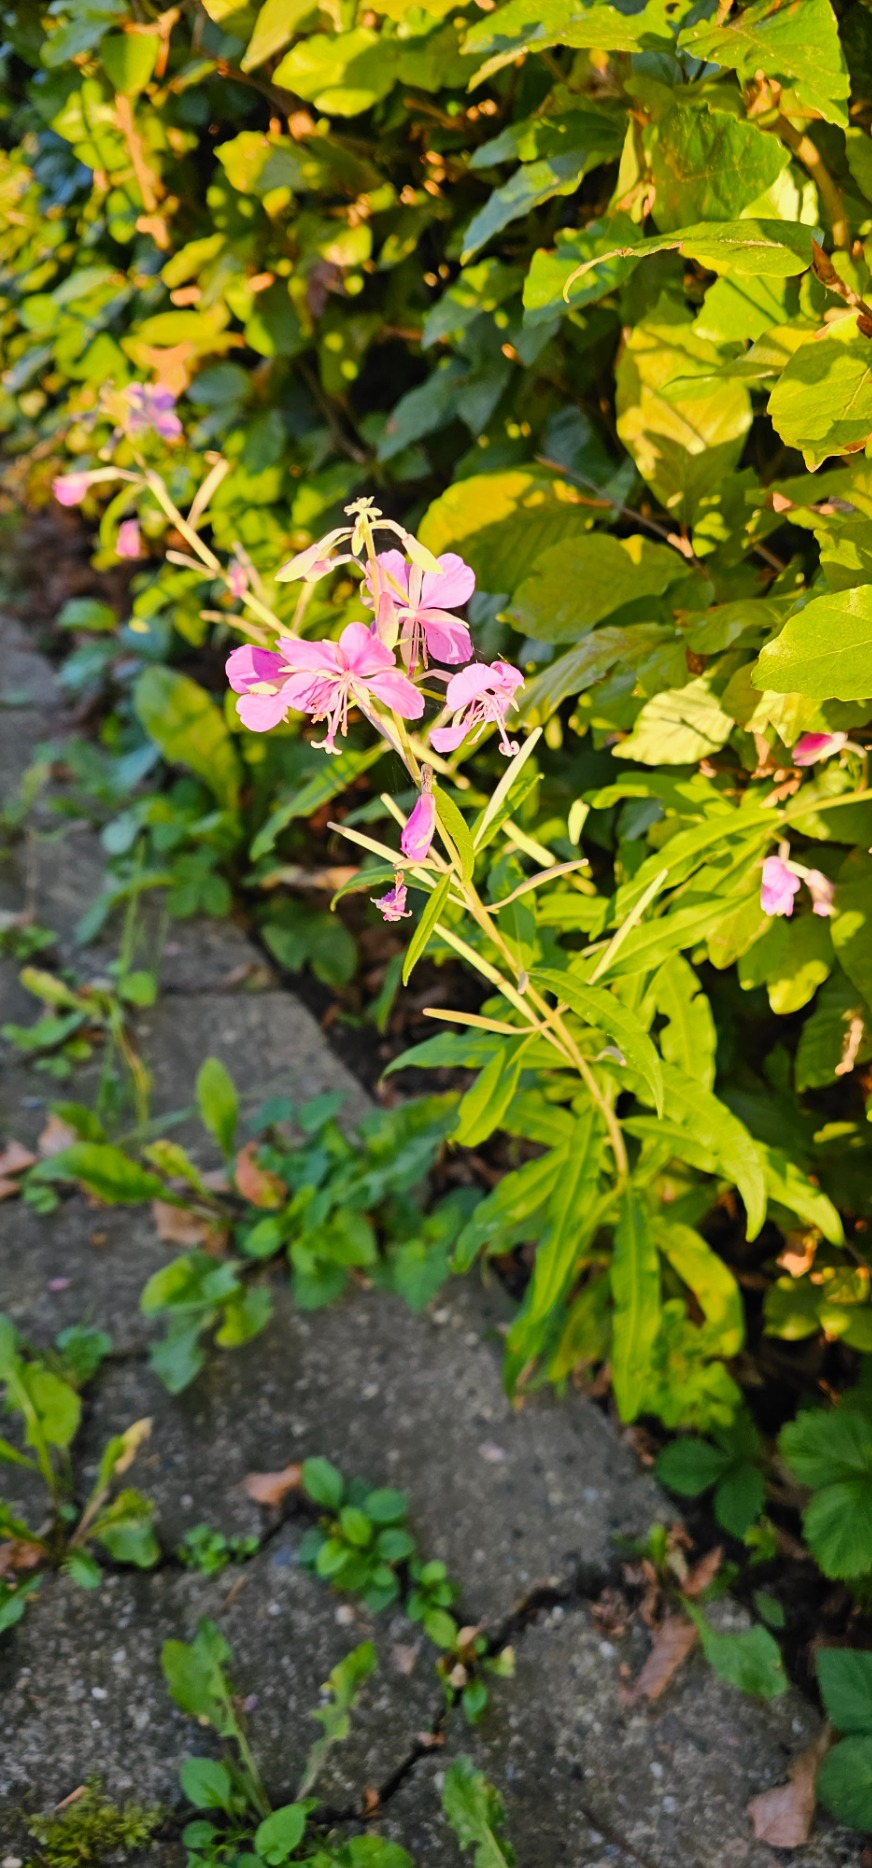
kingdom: Plantae
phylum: Tracheophyta
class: Magnoliopsida
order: Myrtales
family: Onagraceae
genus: Chamaenerion
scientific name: Chamaenerion angustifolium
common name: Gederams
